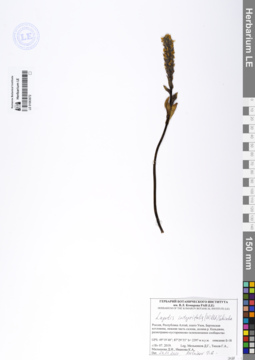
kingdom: Plantae
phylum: Tracheophyta
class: Magnoliopsida
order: Lamiales
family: Plantaginaceae
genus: Lagotis
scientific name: Lagotis integrifolia
